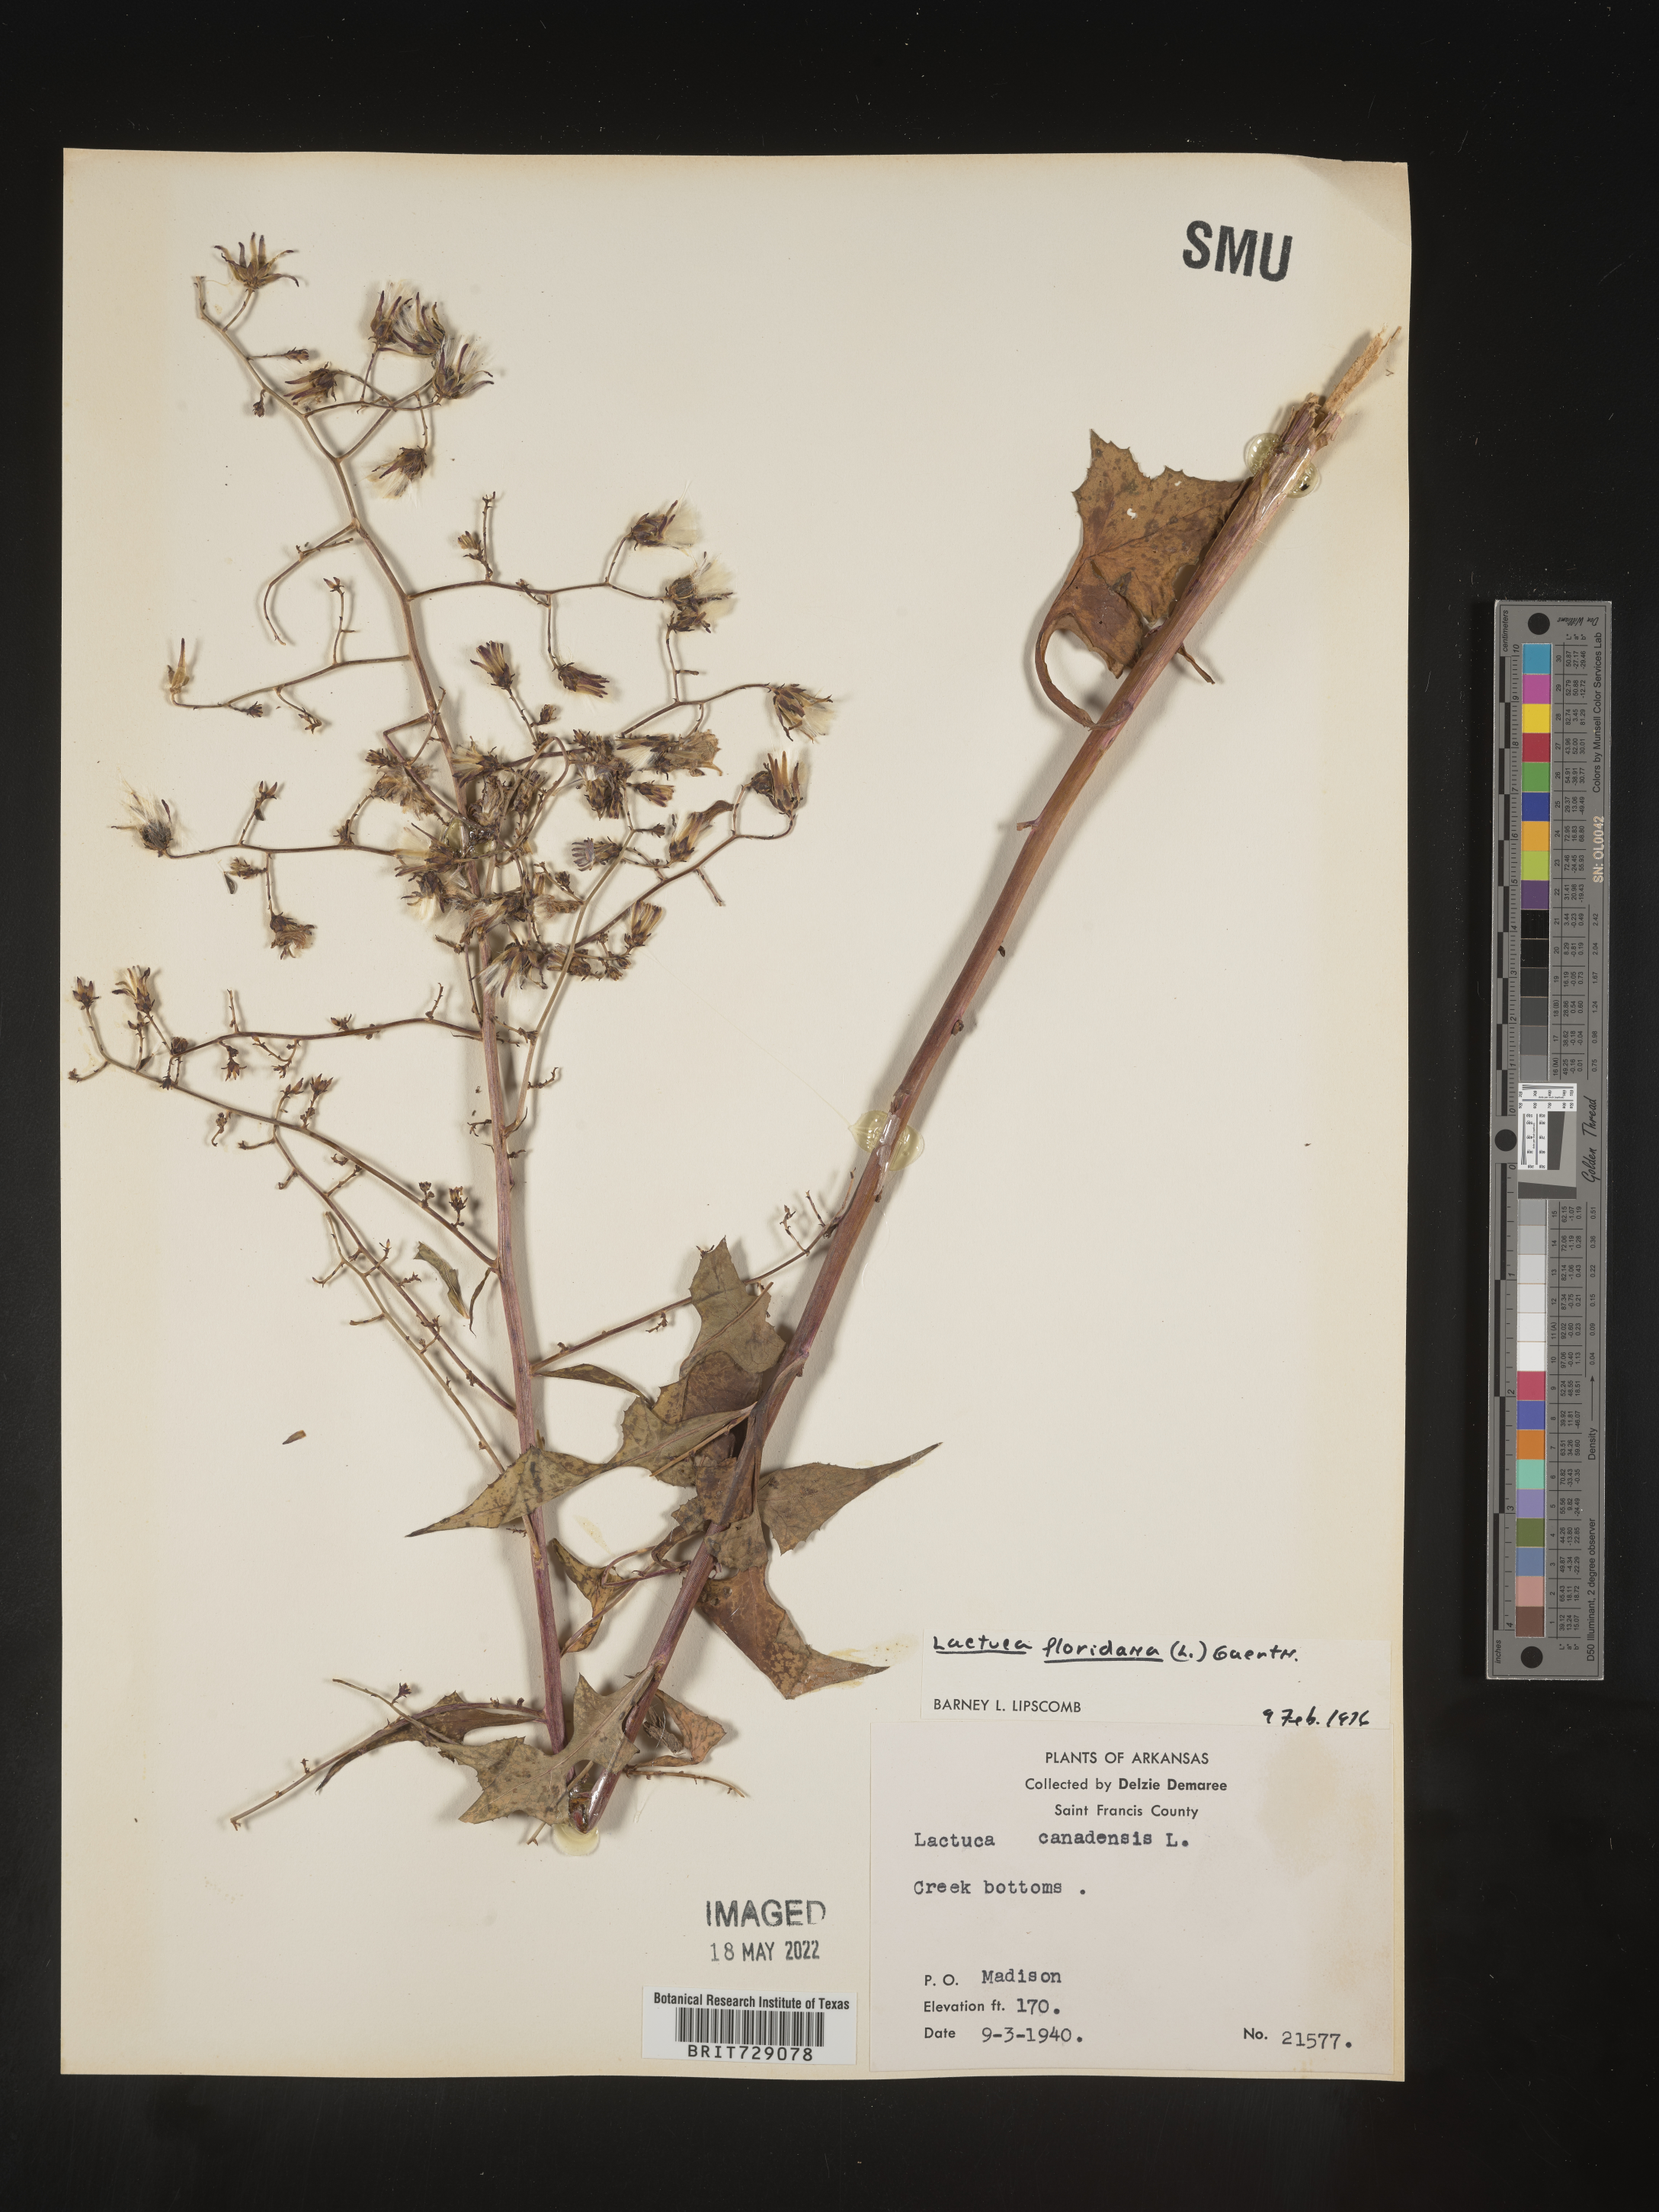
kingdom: Plantae
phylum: Tracheophyta
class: Magnoliopsida
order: Asterales
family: Asteraceae
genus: Lactuca
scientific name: Lactuca floridana
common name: Woodland lettuce
